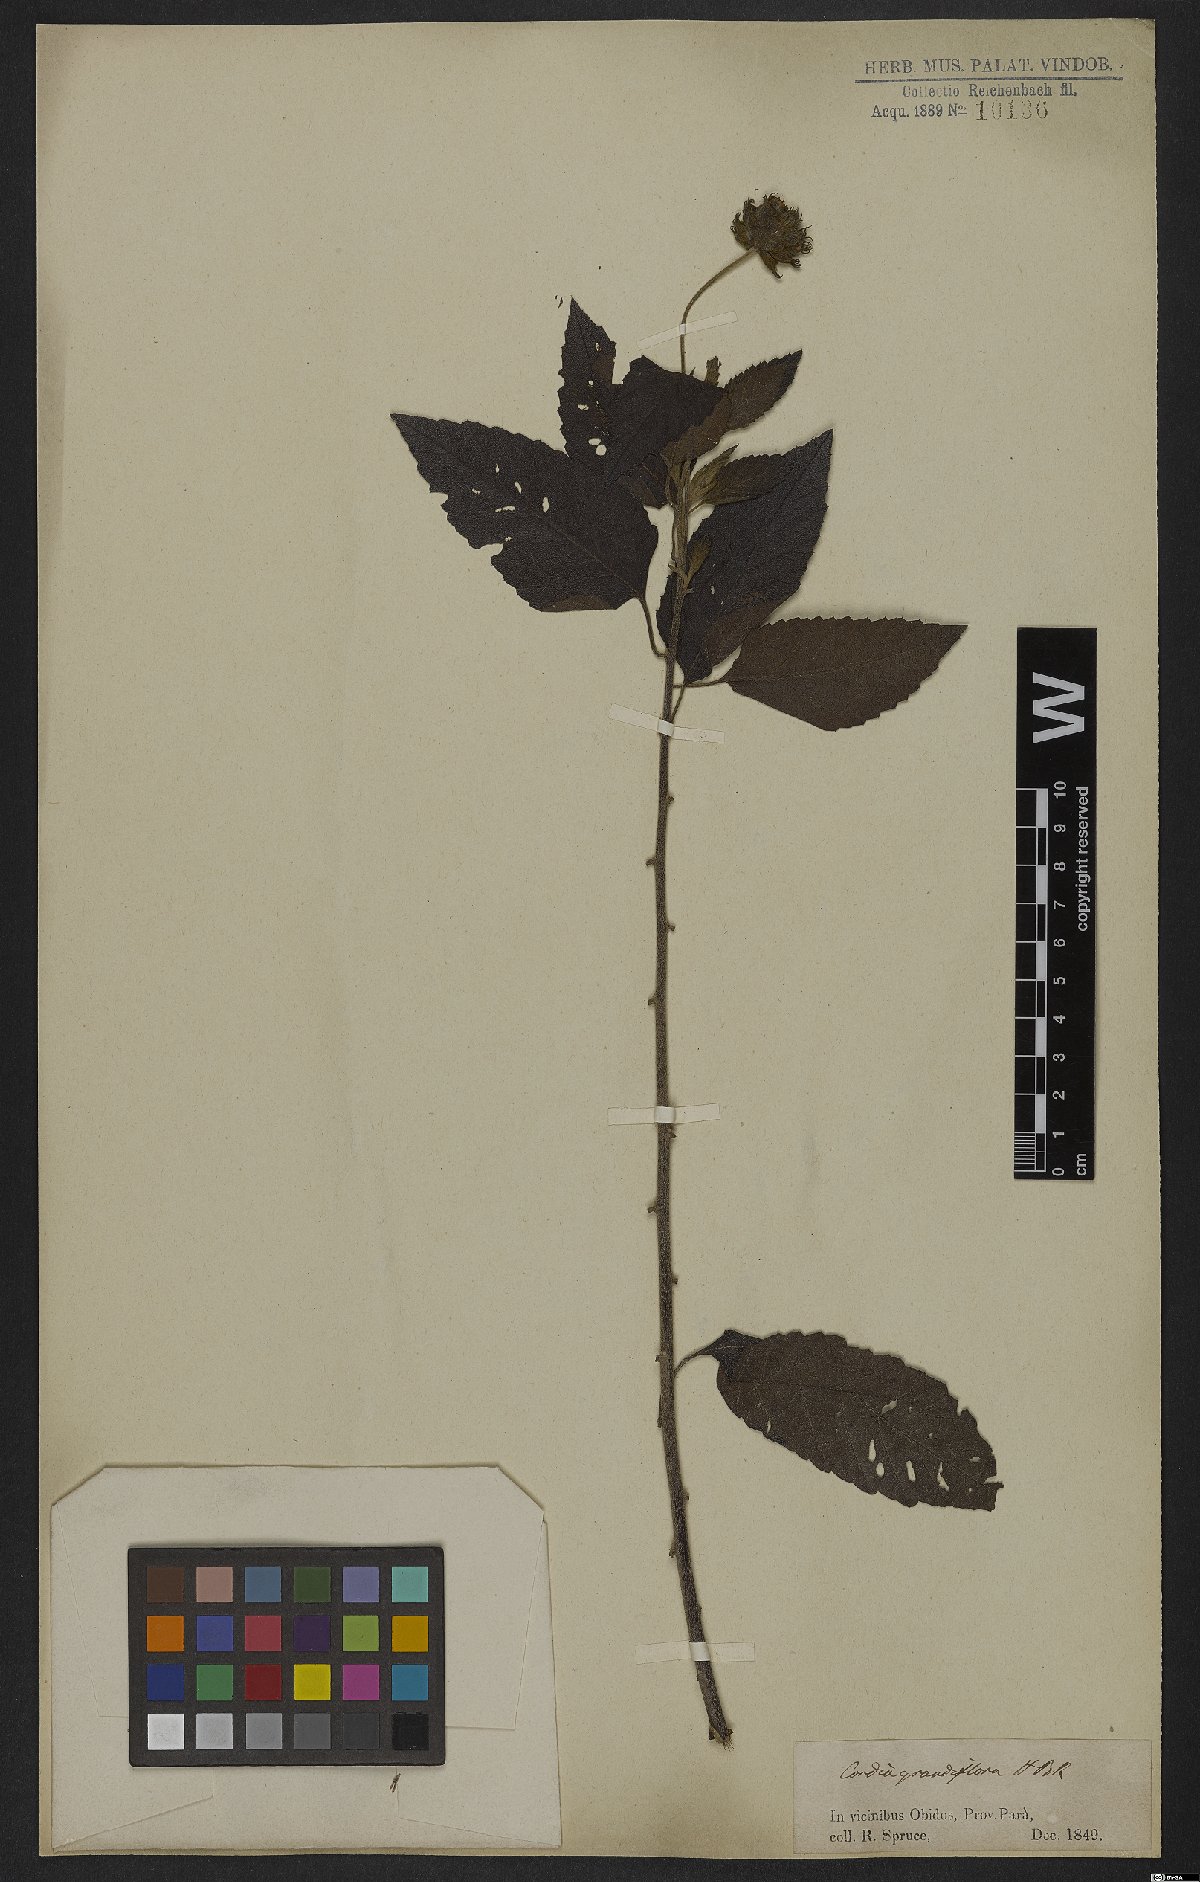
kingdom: Plantae
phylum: Tracheophyta
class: Magnoliopsida
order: Boraginales
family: Cordiaceae
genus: Varronia
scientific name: Varronia grandiflora
